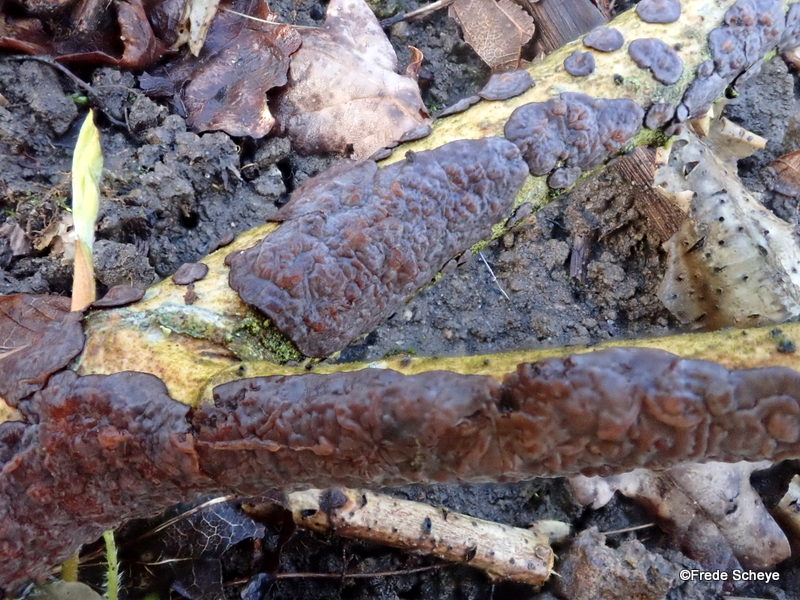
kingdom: Fungi
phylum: Basidiomycota
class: Agaricomycetes
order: Russulales
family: Peniophoraceae
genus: Peniophora
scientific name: Peniophora quercina
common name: ege-voksskind
